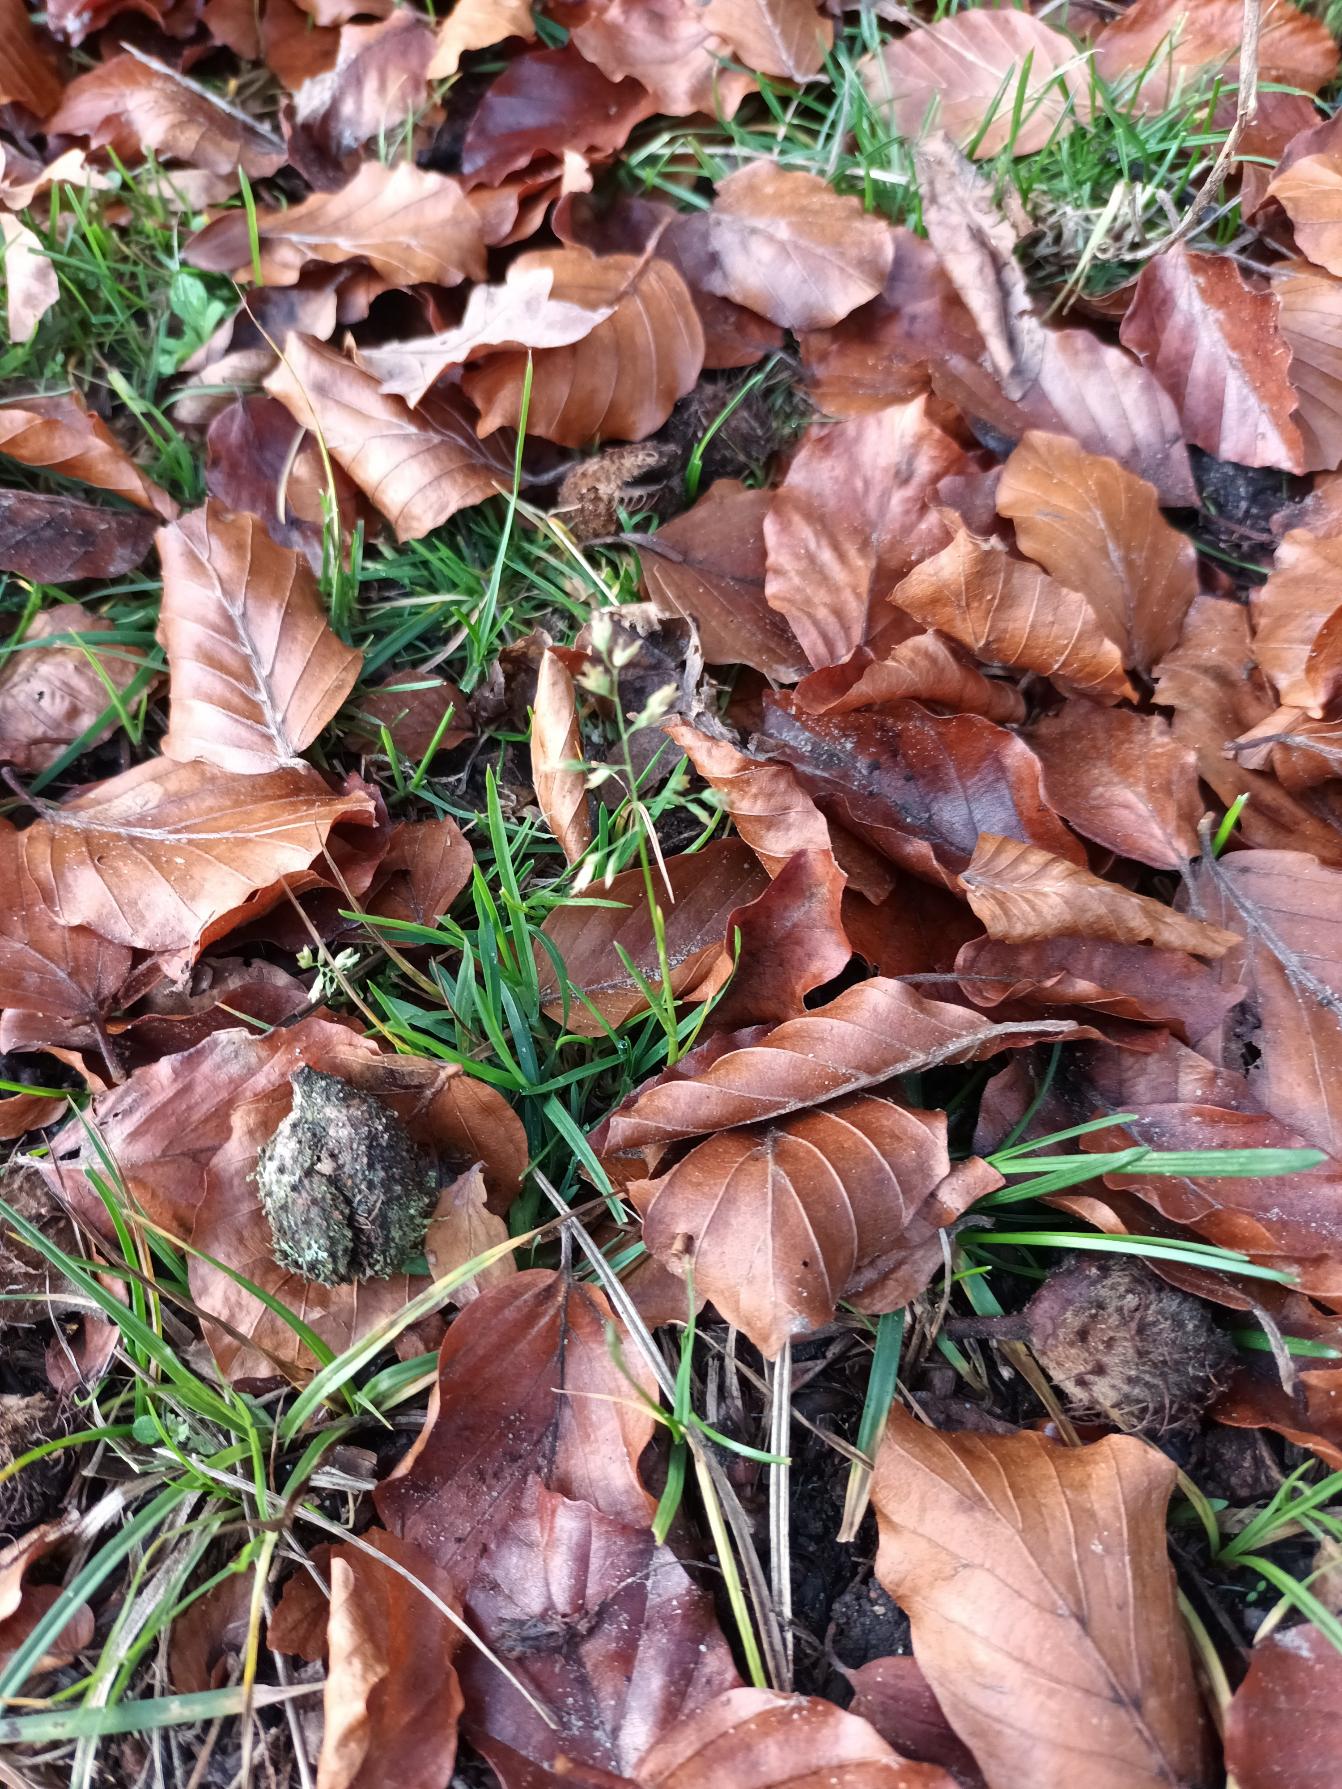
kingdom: Plantae
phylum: Tracheophyta
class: Liliopsida
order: Poales
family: Poaceae
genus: Poa
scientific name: Poa annua
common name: Enårig rapgræs
